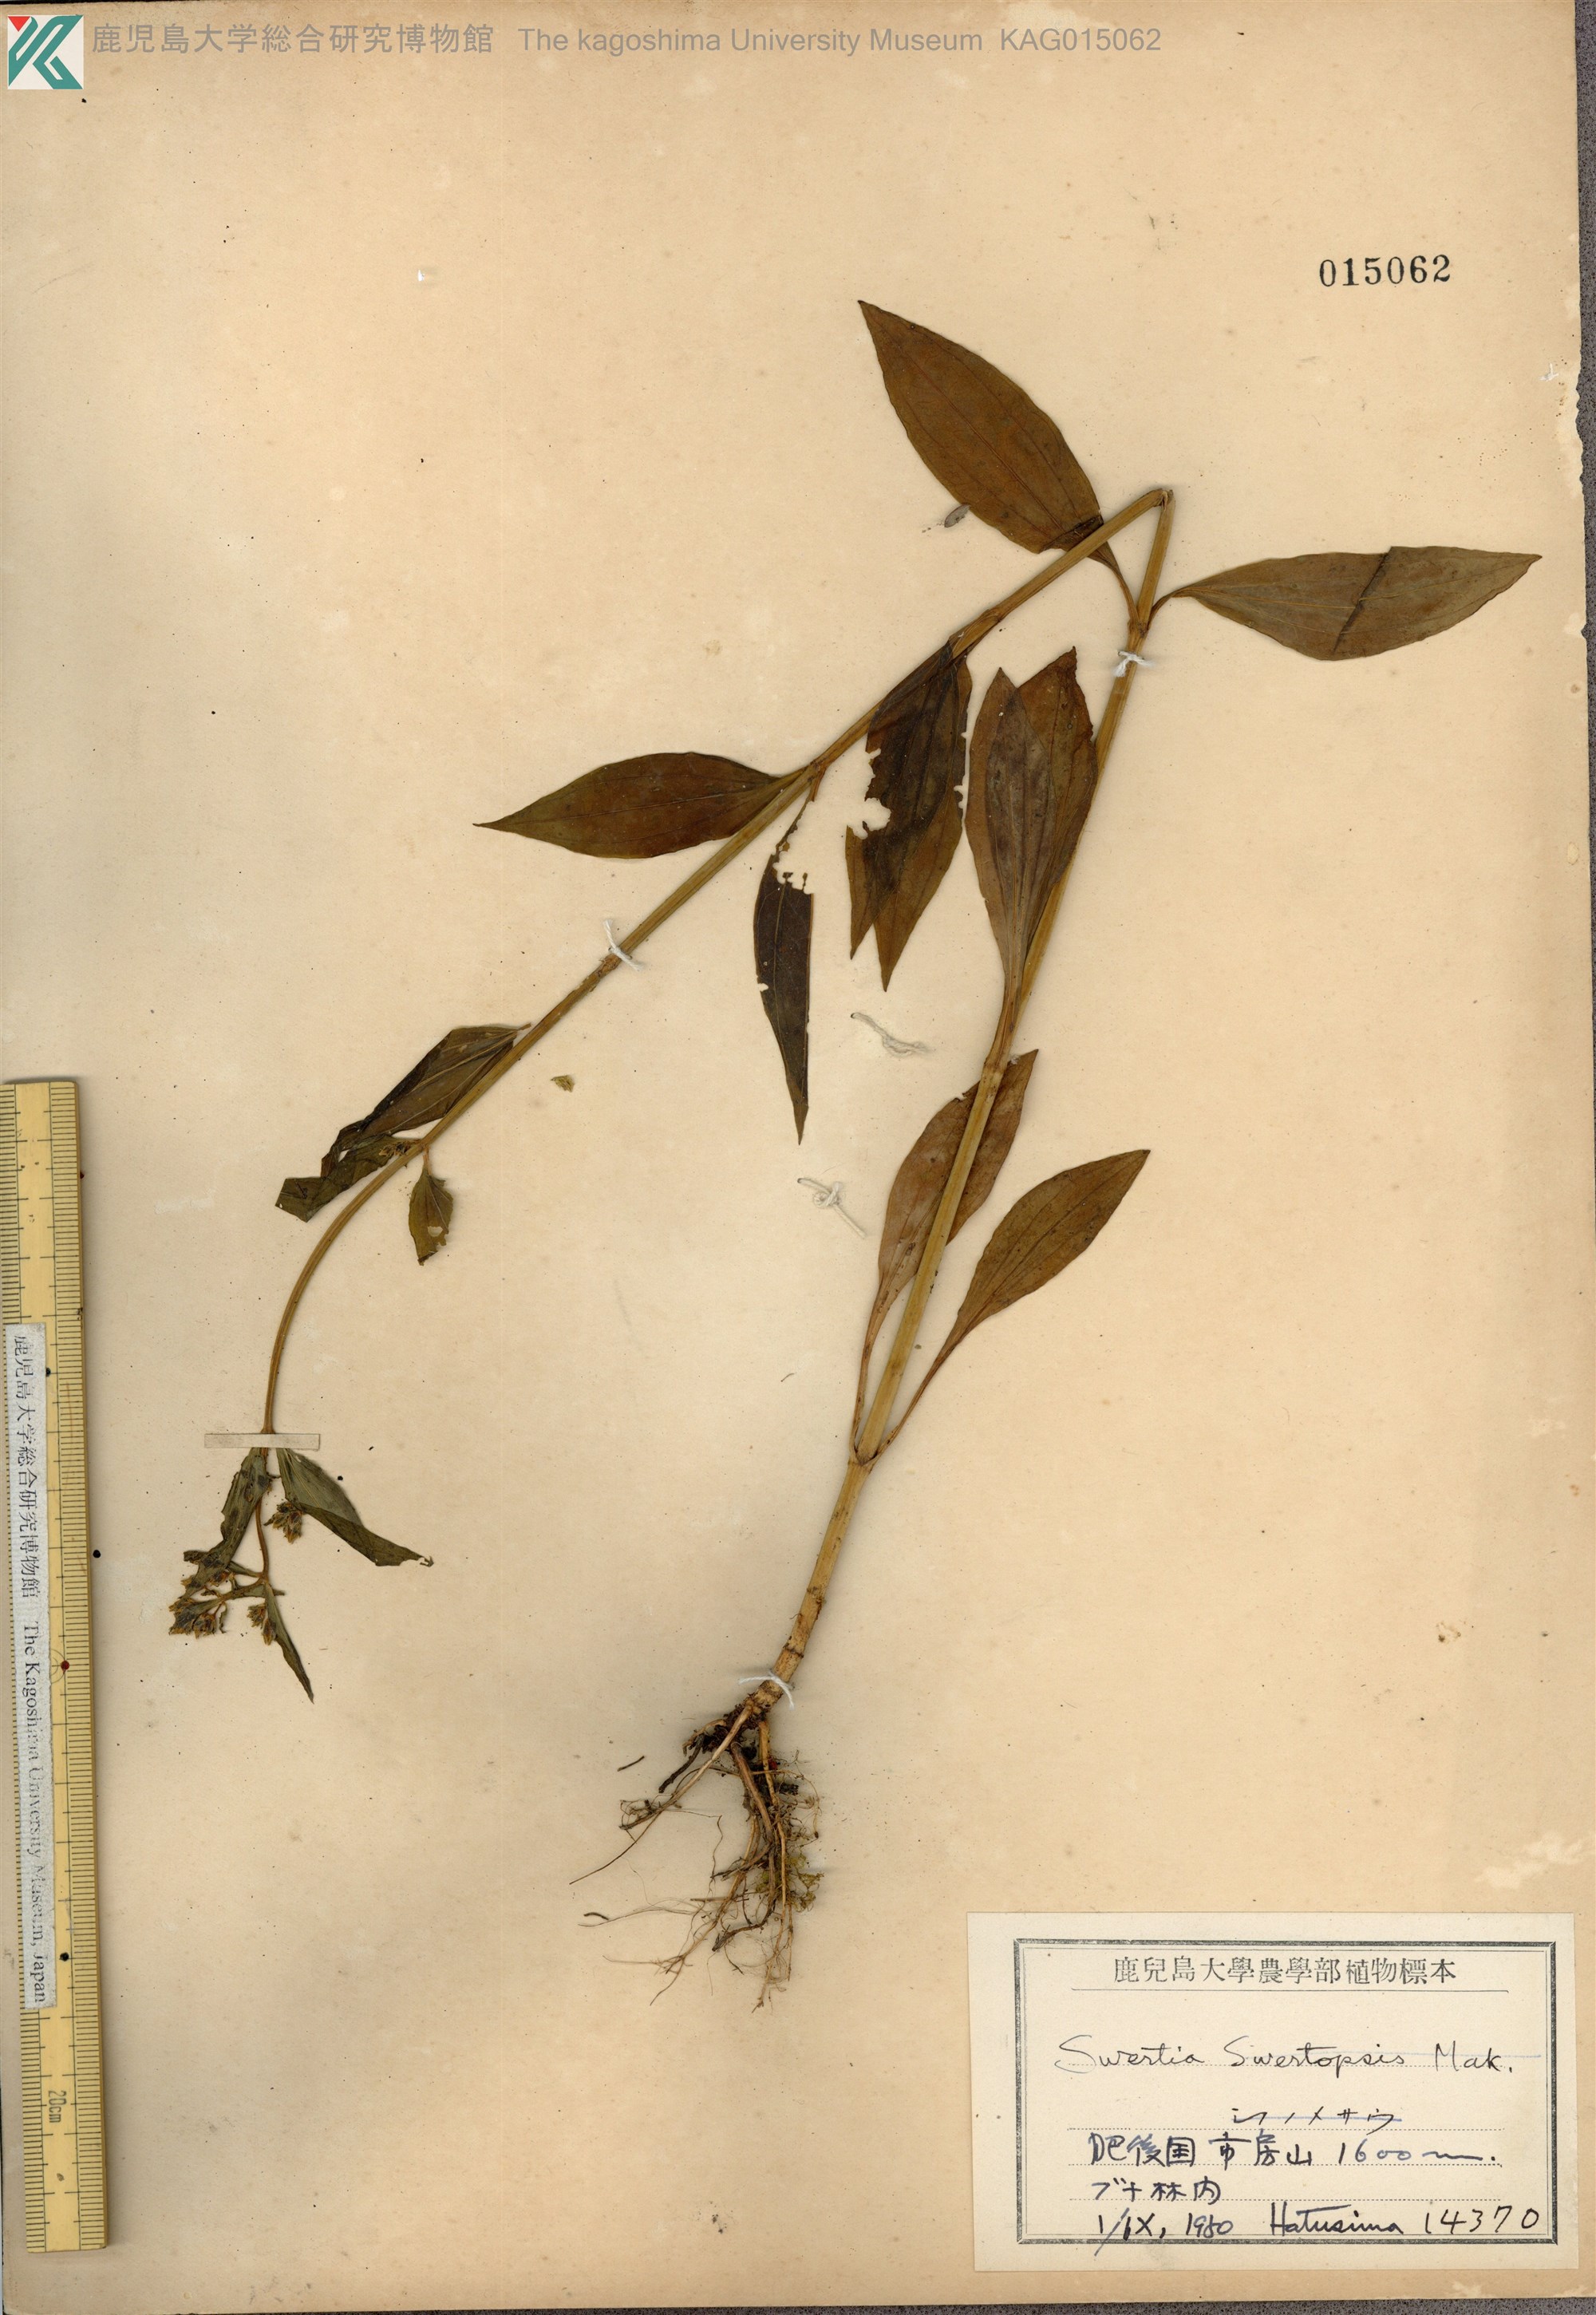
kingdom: Plantae
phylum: Tracheophyta
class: Magnoliopsida
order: Gentianales
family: Gentianaceae
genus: Swertia
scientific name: Swertia bimaculata
